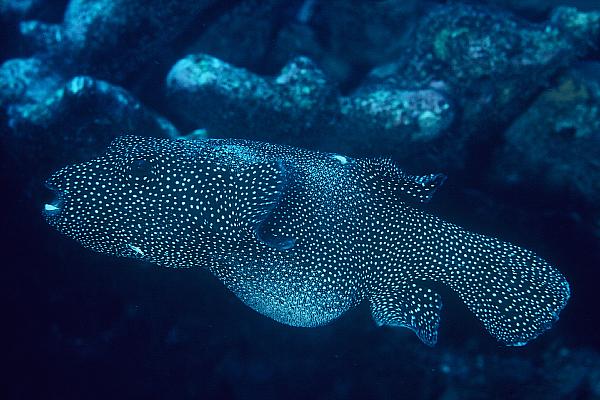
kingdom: Animalia
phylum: Chordata
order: Tetraodontiformes
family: Tetraodontidae
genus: Arothron
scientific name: Arothron meleagris
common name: Guinea-fowl pufferfish
